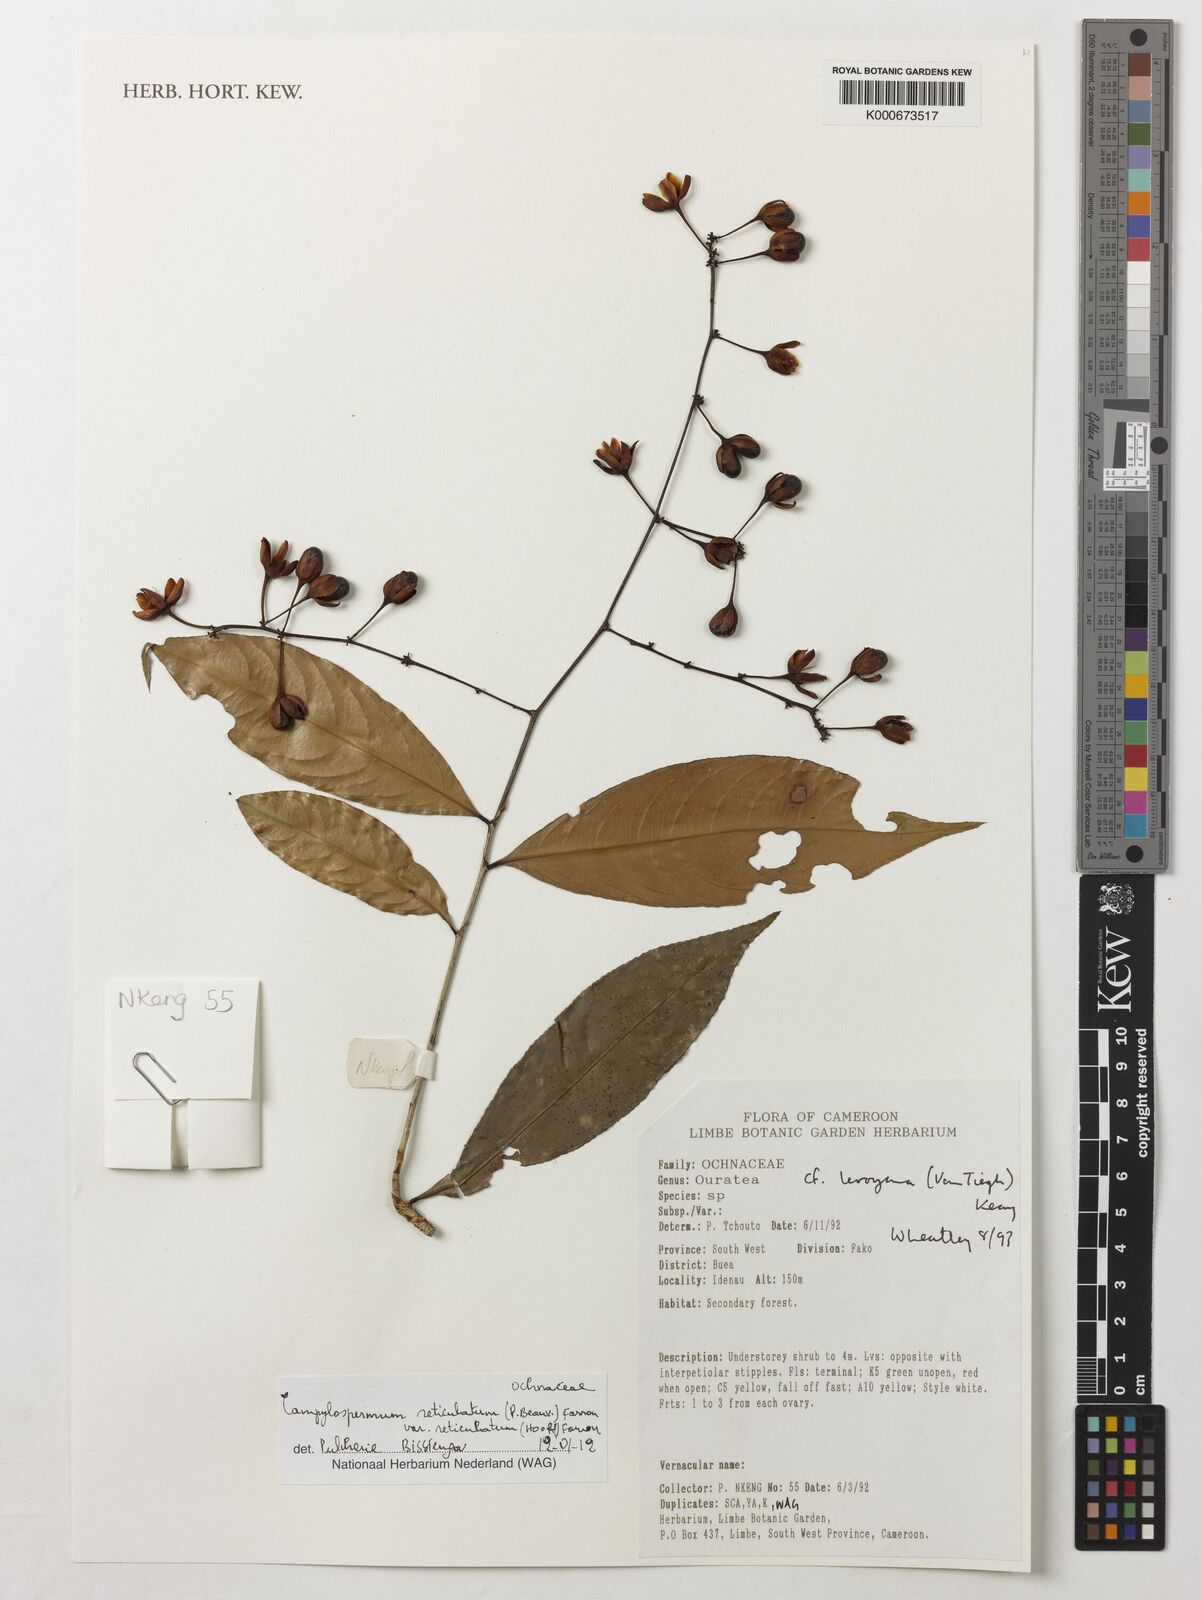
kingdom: Plantae
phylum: Tracheophyta
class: Magnoliopsida
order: Malpighiales
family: Ochnaceae
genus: Campylospermum
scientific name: Campylospermum reticulatum
